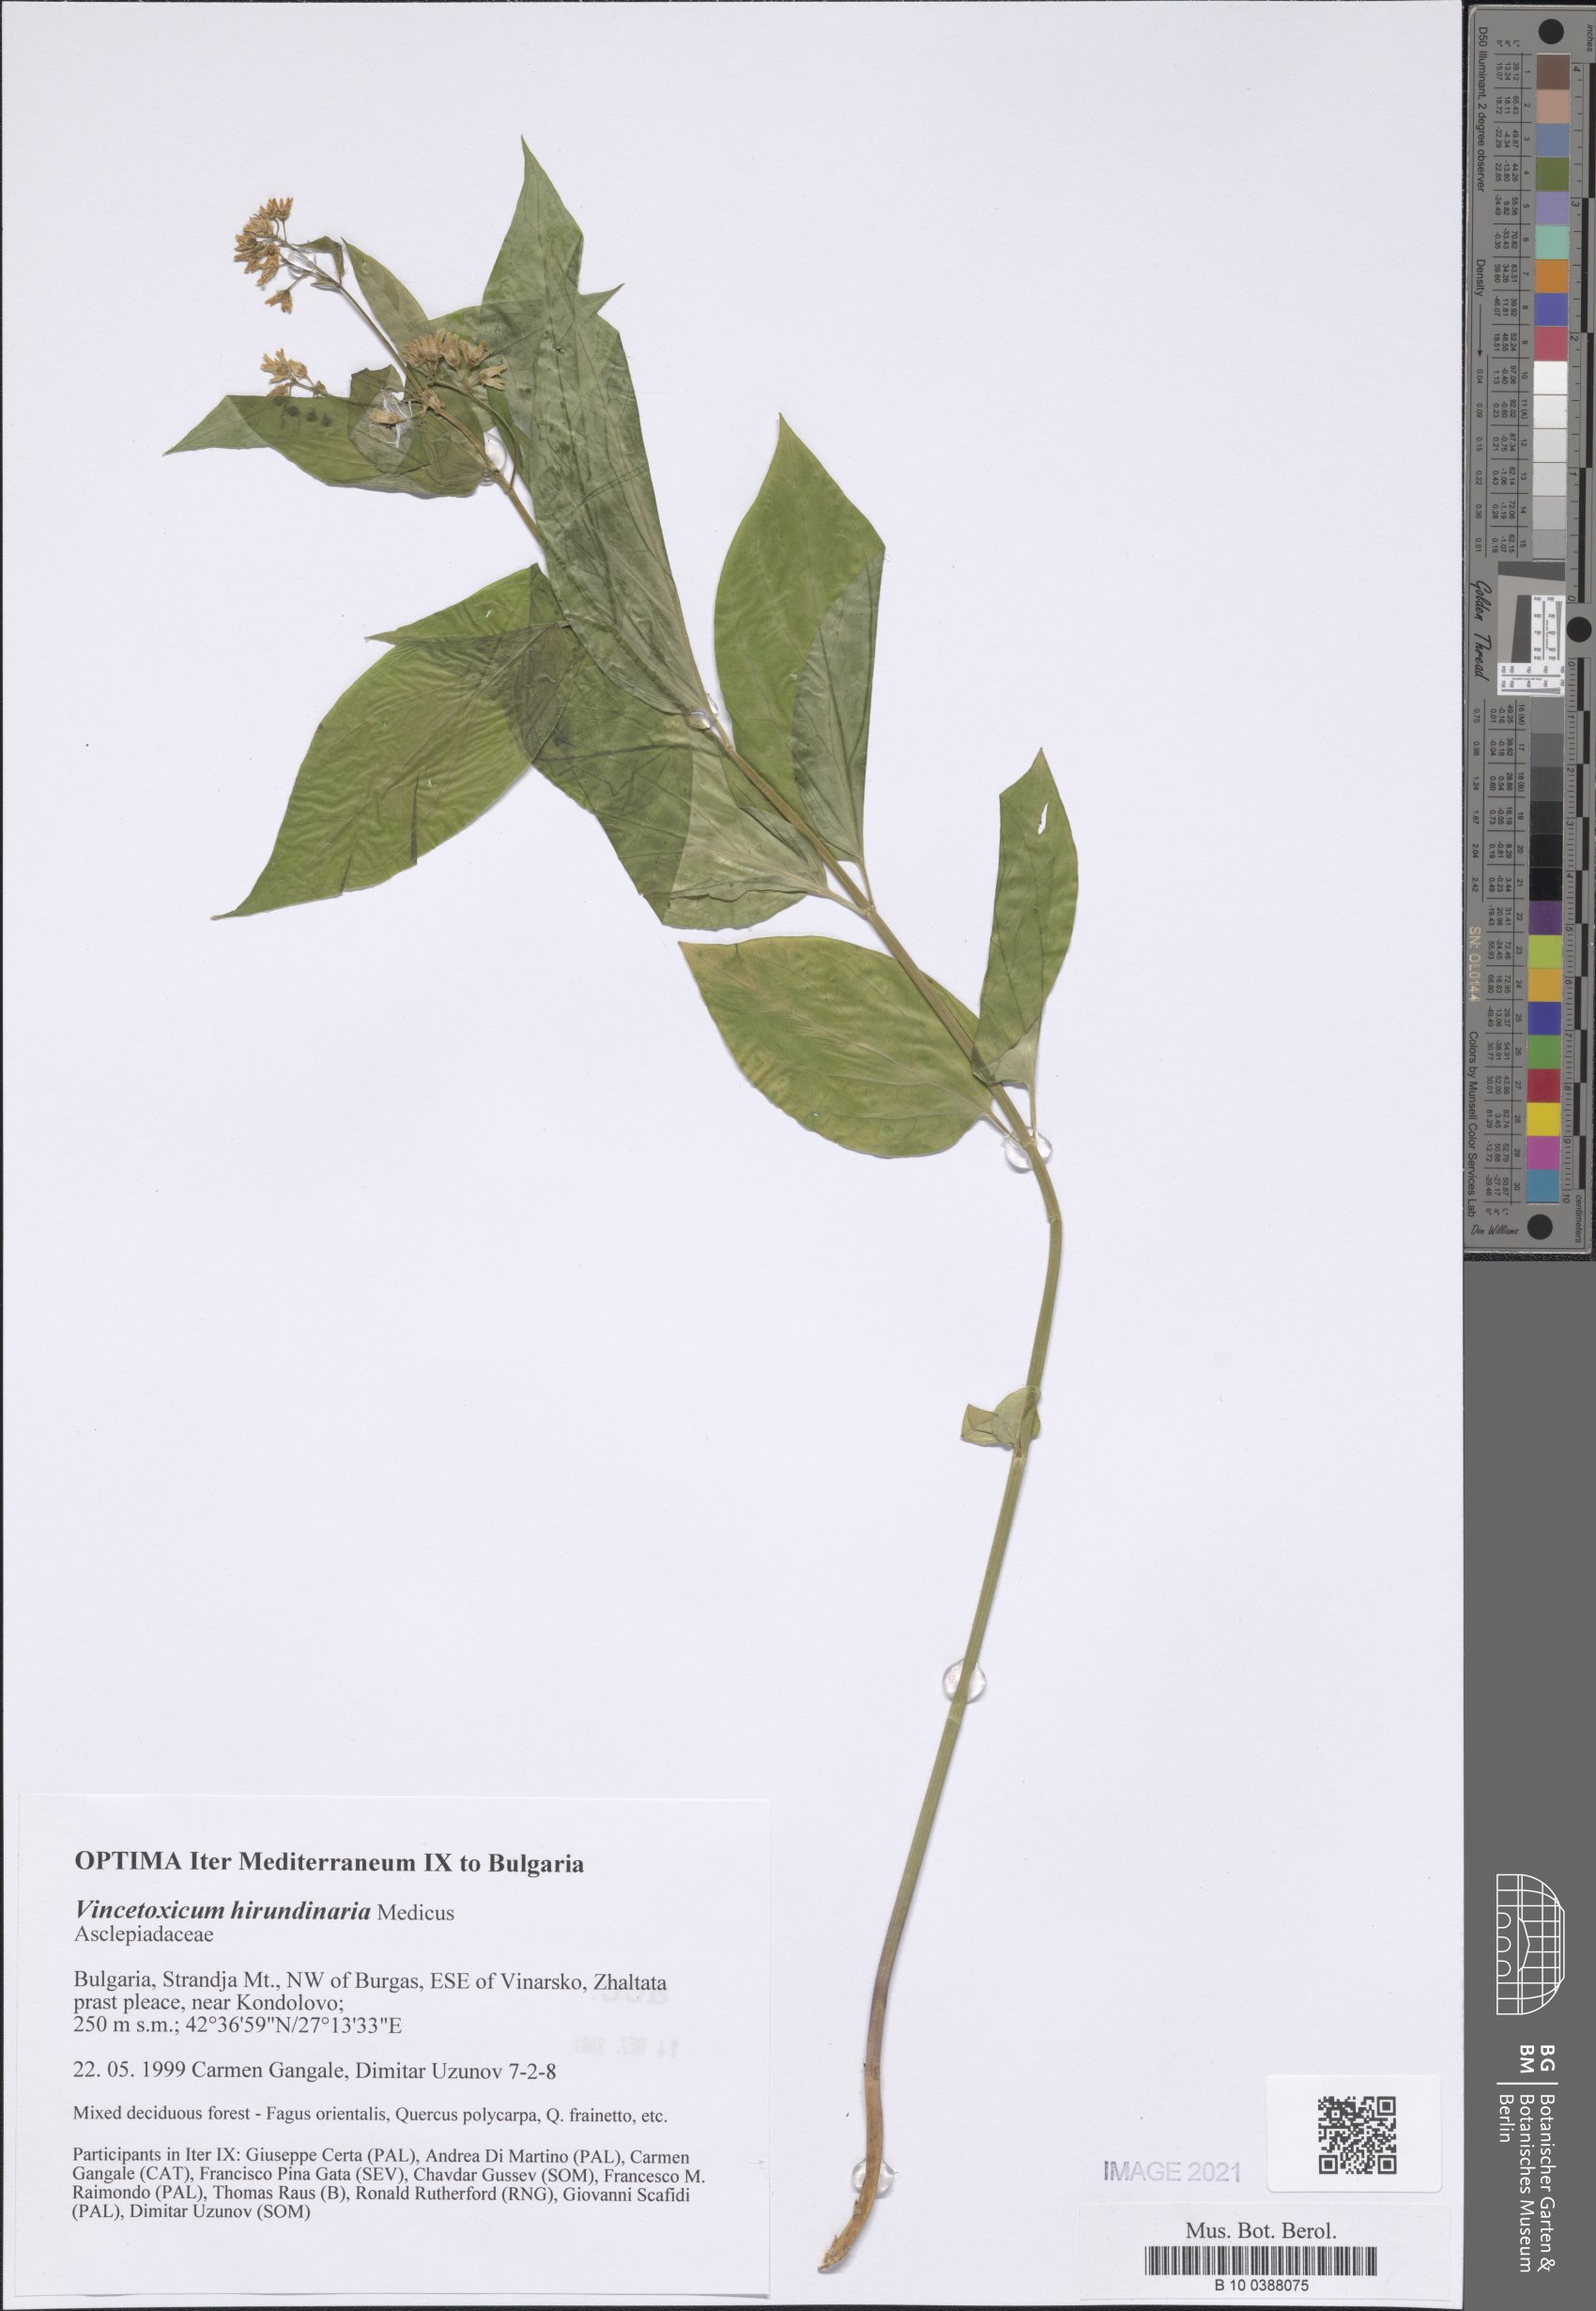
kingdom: Plantae
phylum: Tracheophyta
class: Magnoliopsida
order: Gentianales
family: Apocynaceae
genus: Vincetoxicum
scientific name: Vincetoxicum hirundinaria
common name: White swallowwort
